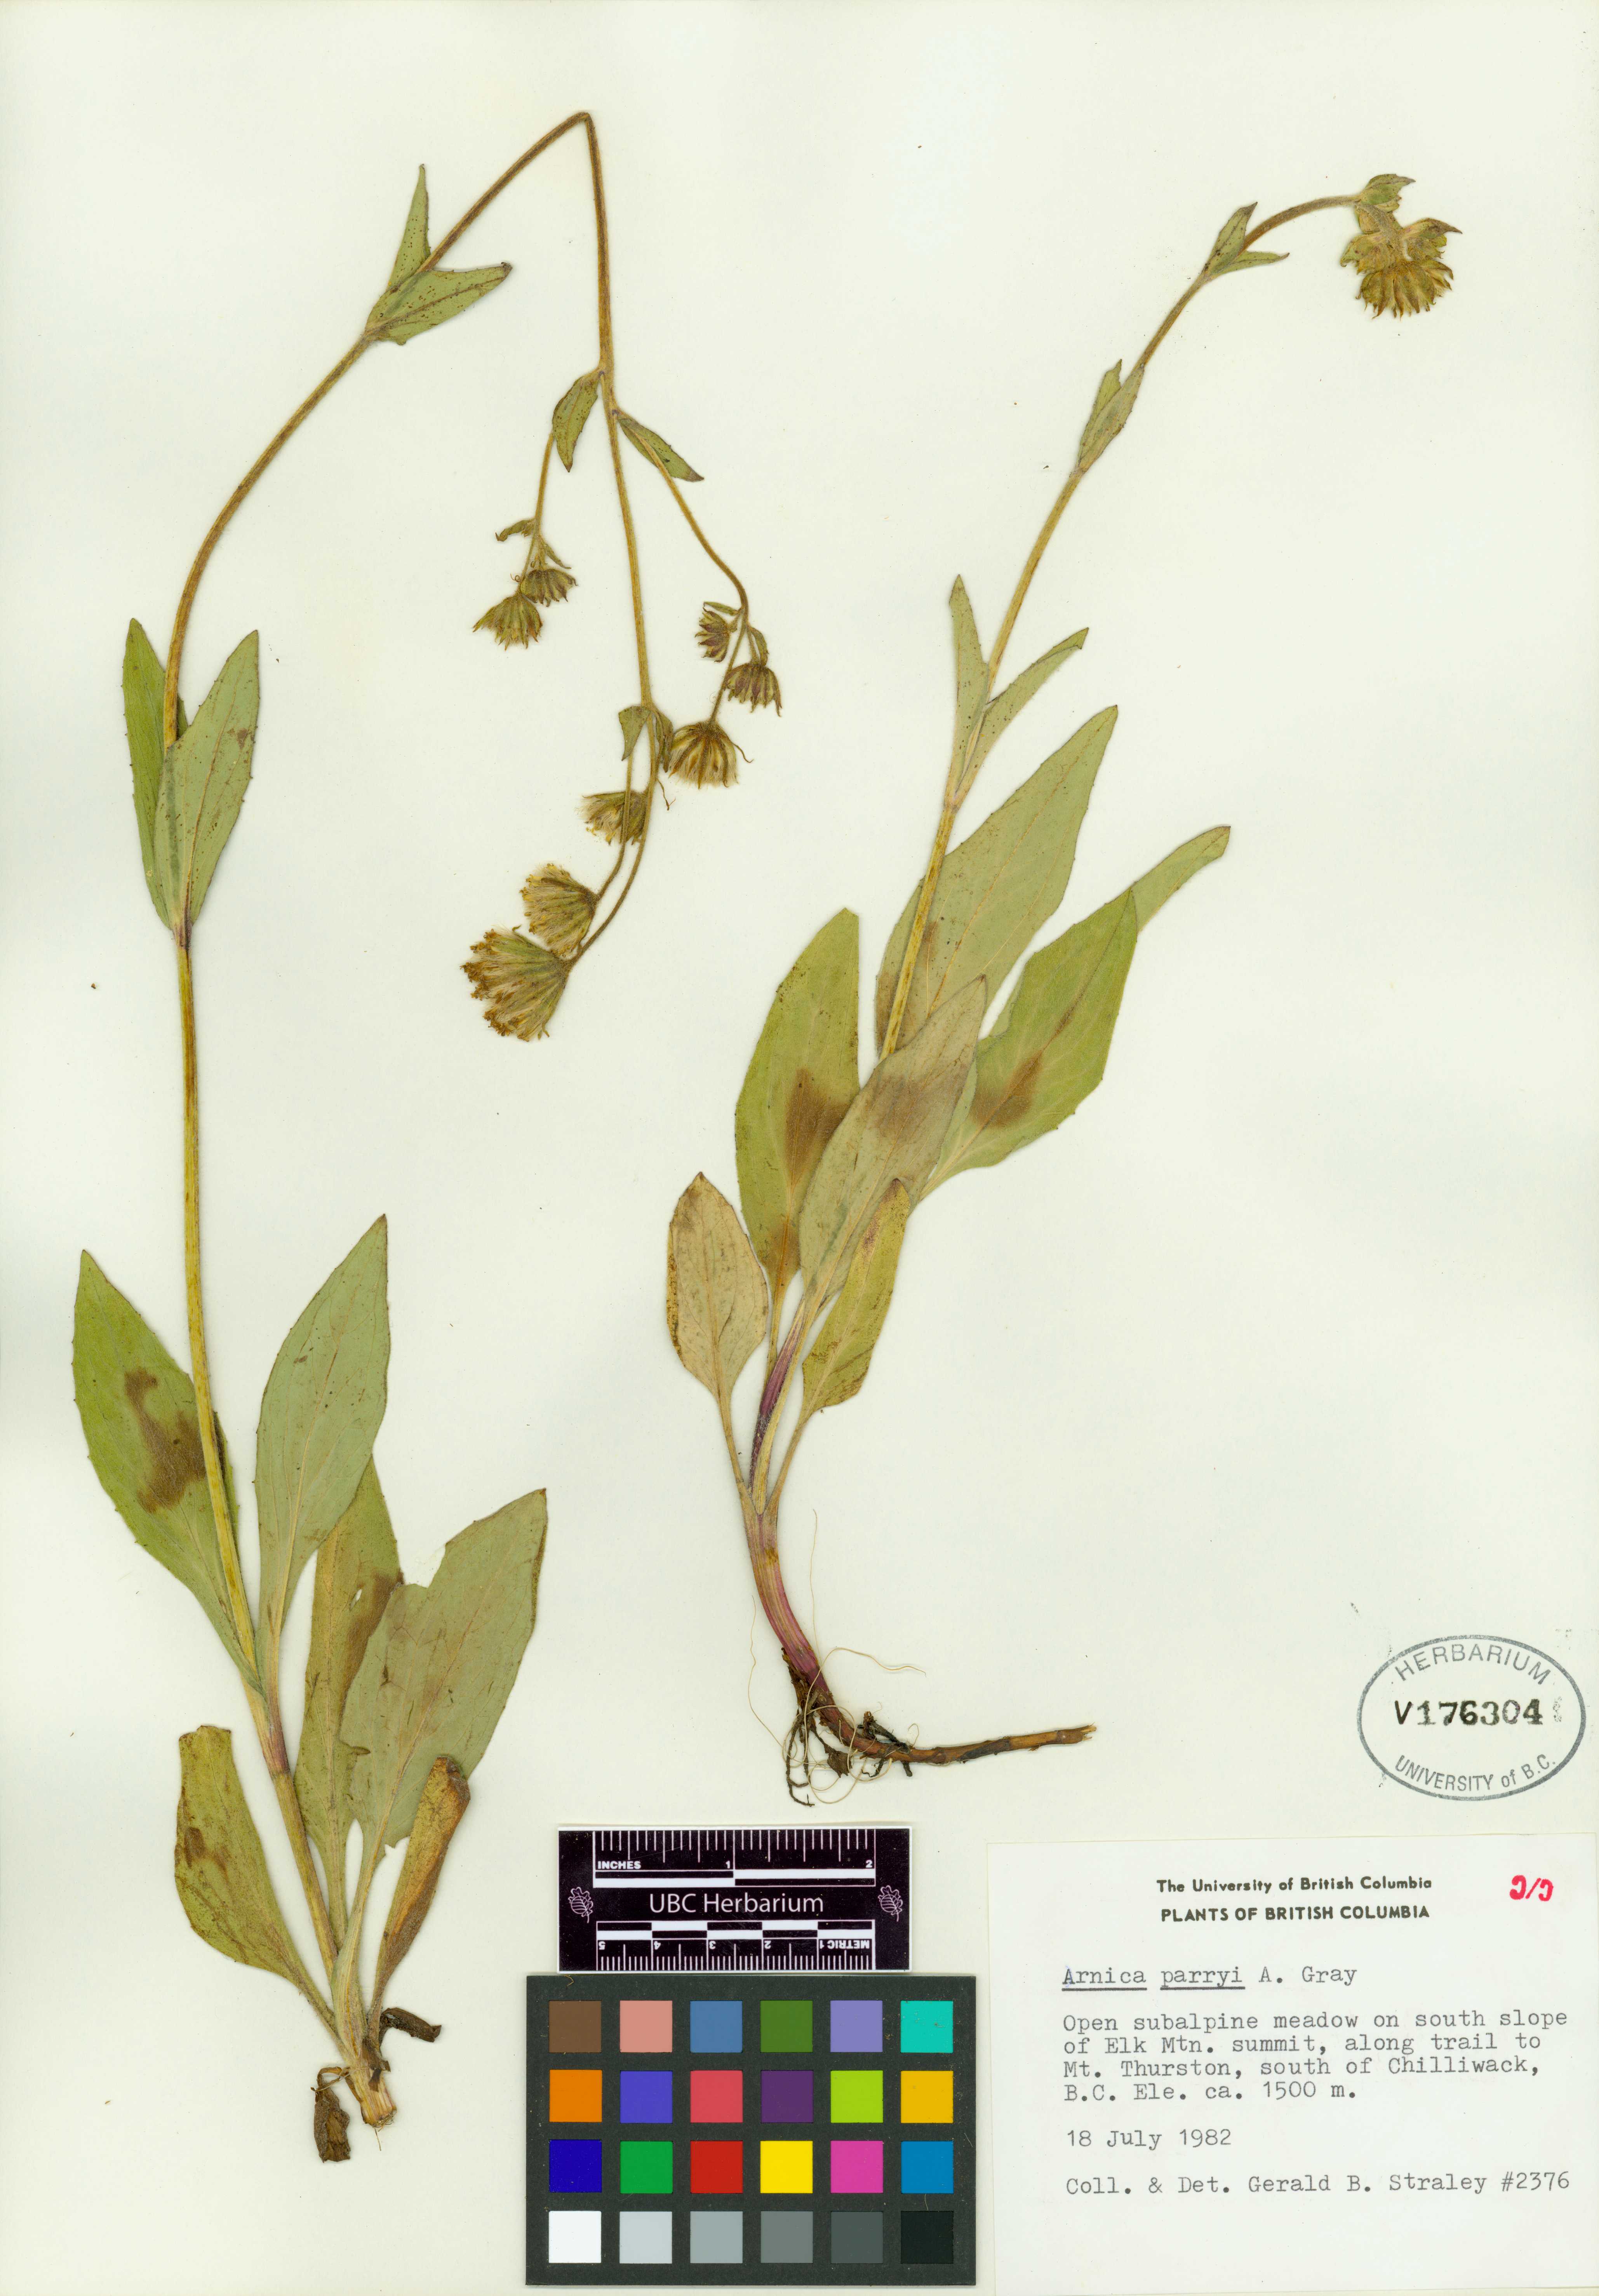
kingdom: Plantae
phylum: Tracheophyta
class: Magnoliopsida
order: Asterales
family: Asteraceae
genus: Arnica
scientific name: Arnica parryi
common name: Parry's arnica
